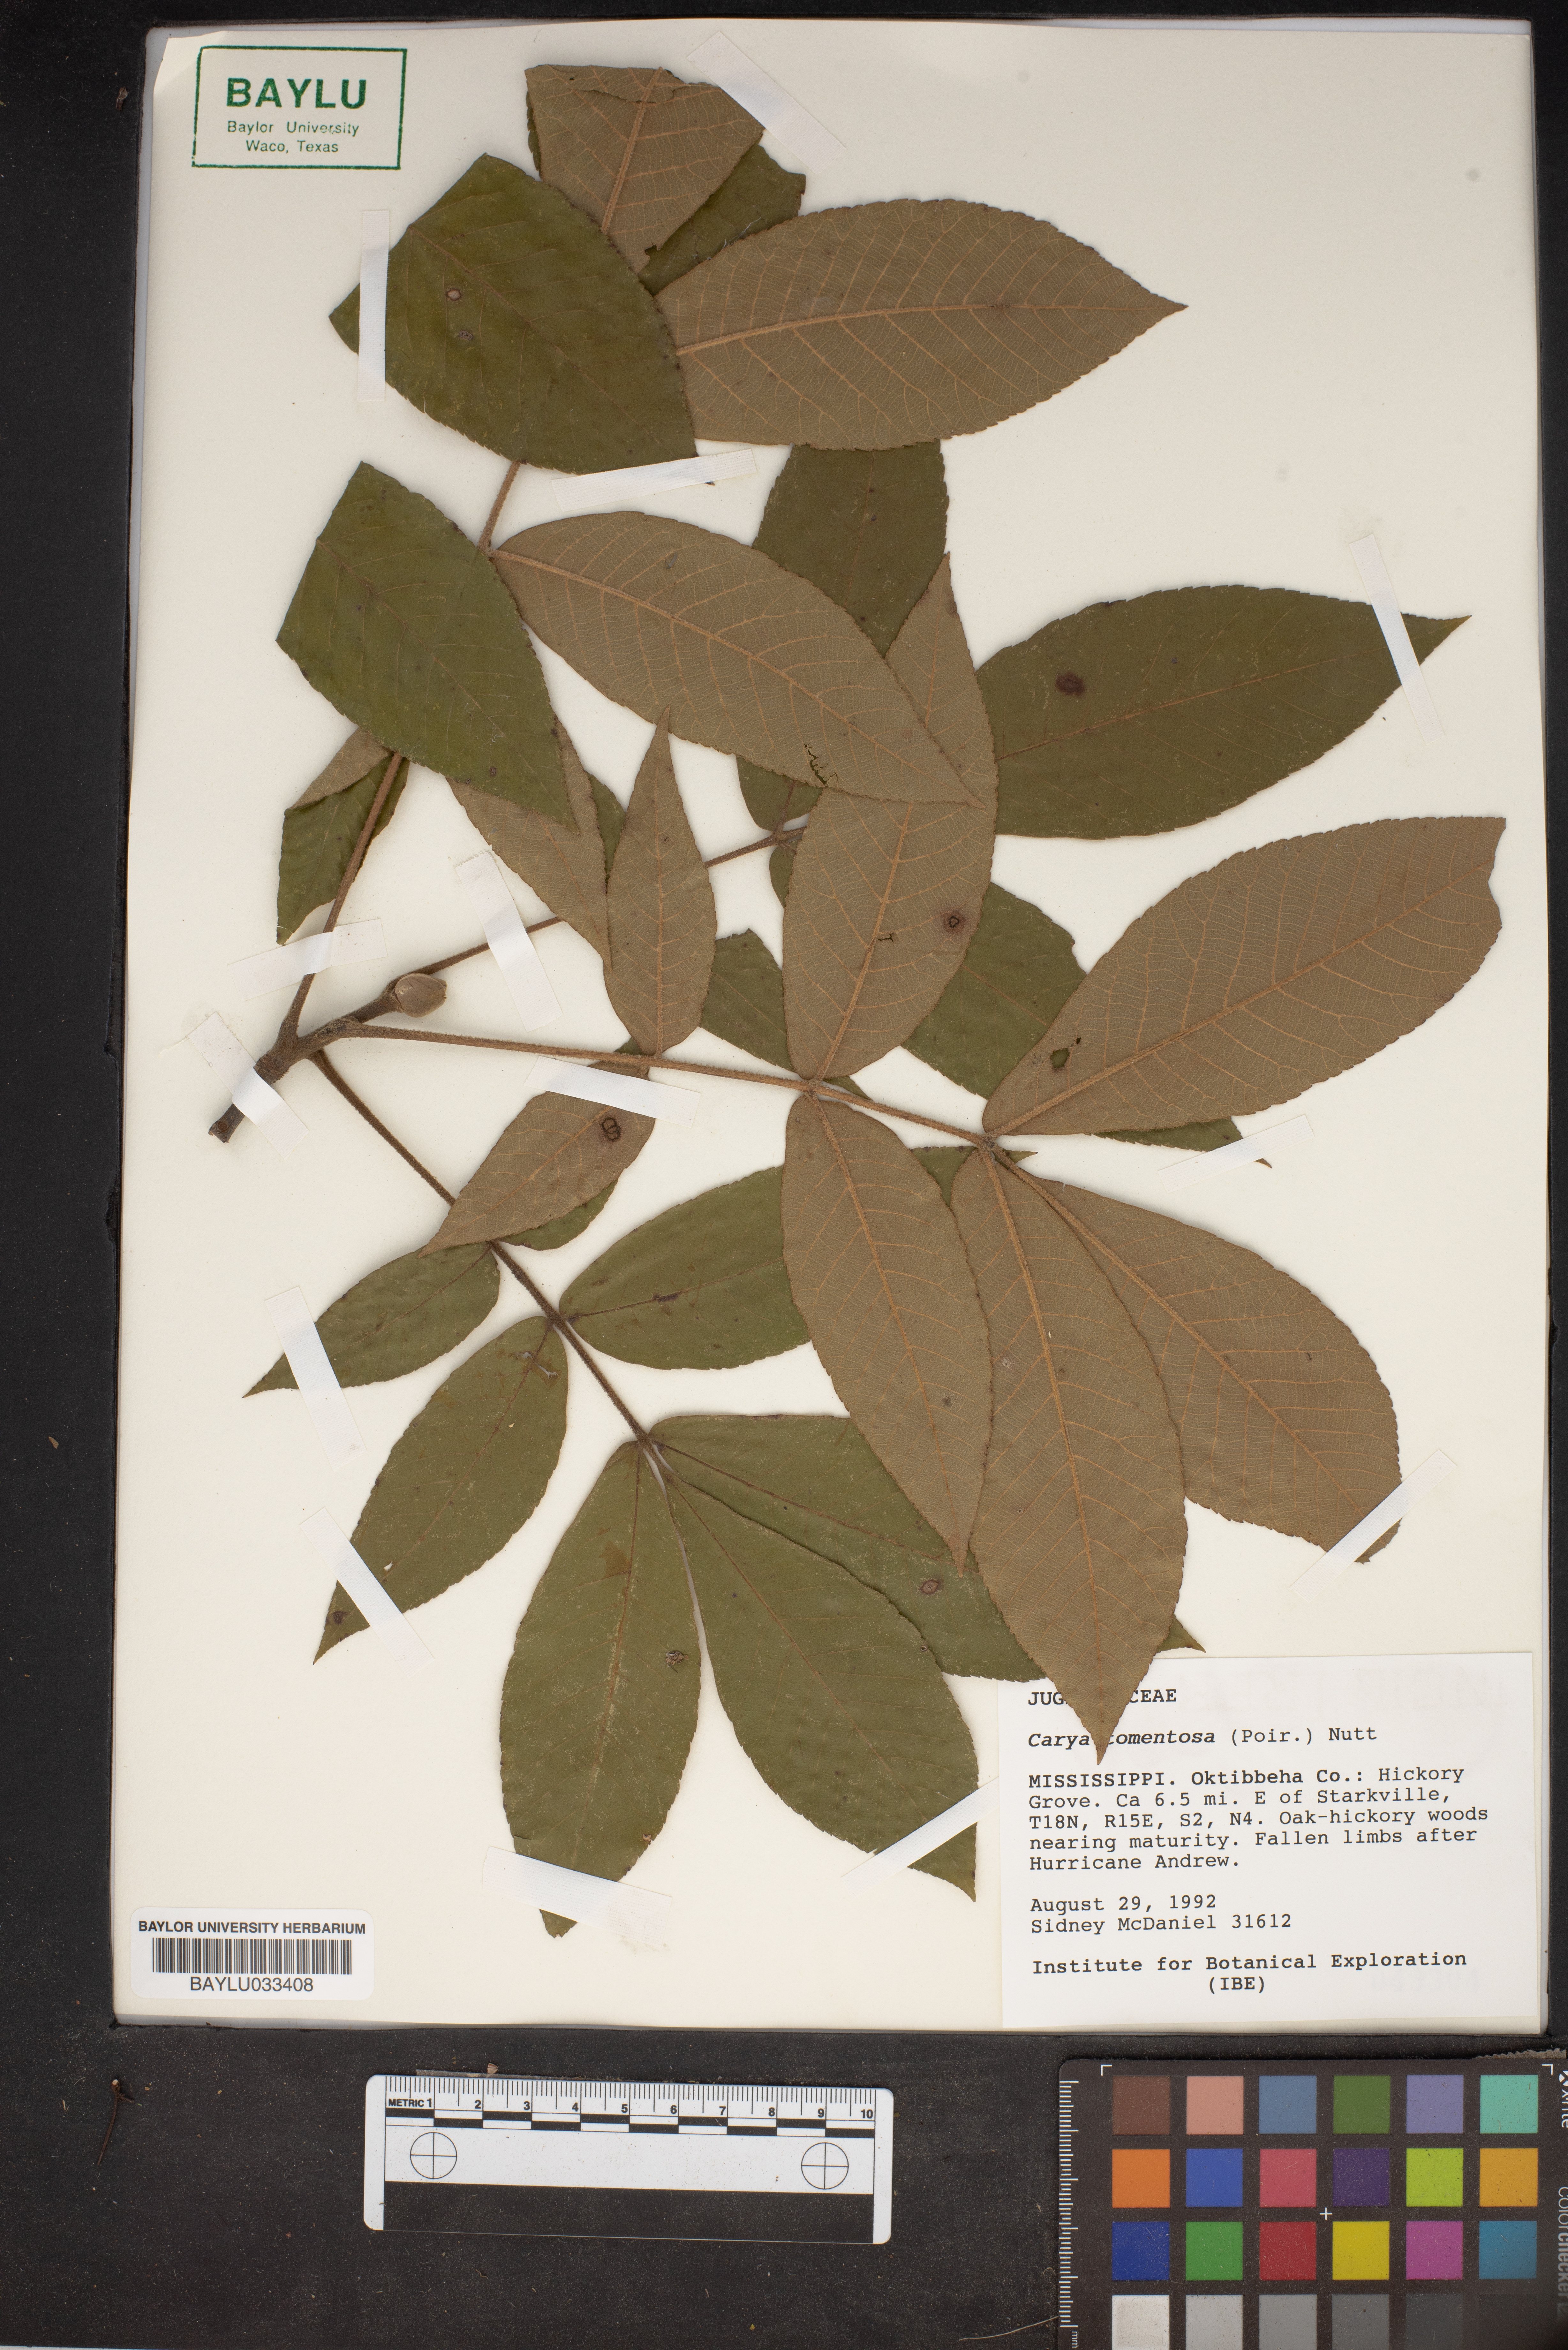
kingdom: Plantae
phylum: Tracheophyta
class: Magnoliopsida
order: Fagales
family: Juglandaceae
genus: Carya
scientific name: Carya alba
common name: Mockernut hickory
